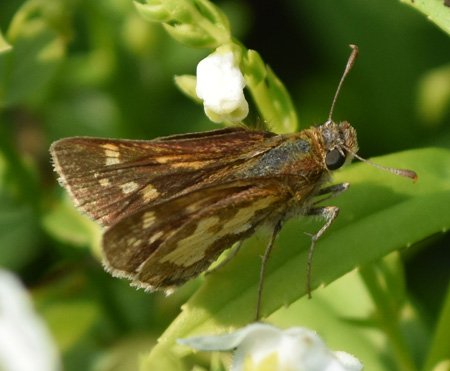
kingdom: Animalia
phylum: Arthropoda
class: Insecta
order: Lepidoptera
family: Hesperiidae
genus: Polites
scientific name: Polites coras
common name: Peck's Skipper
